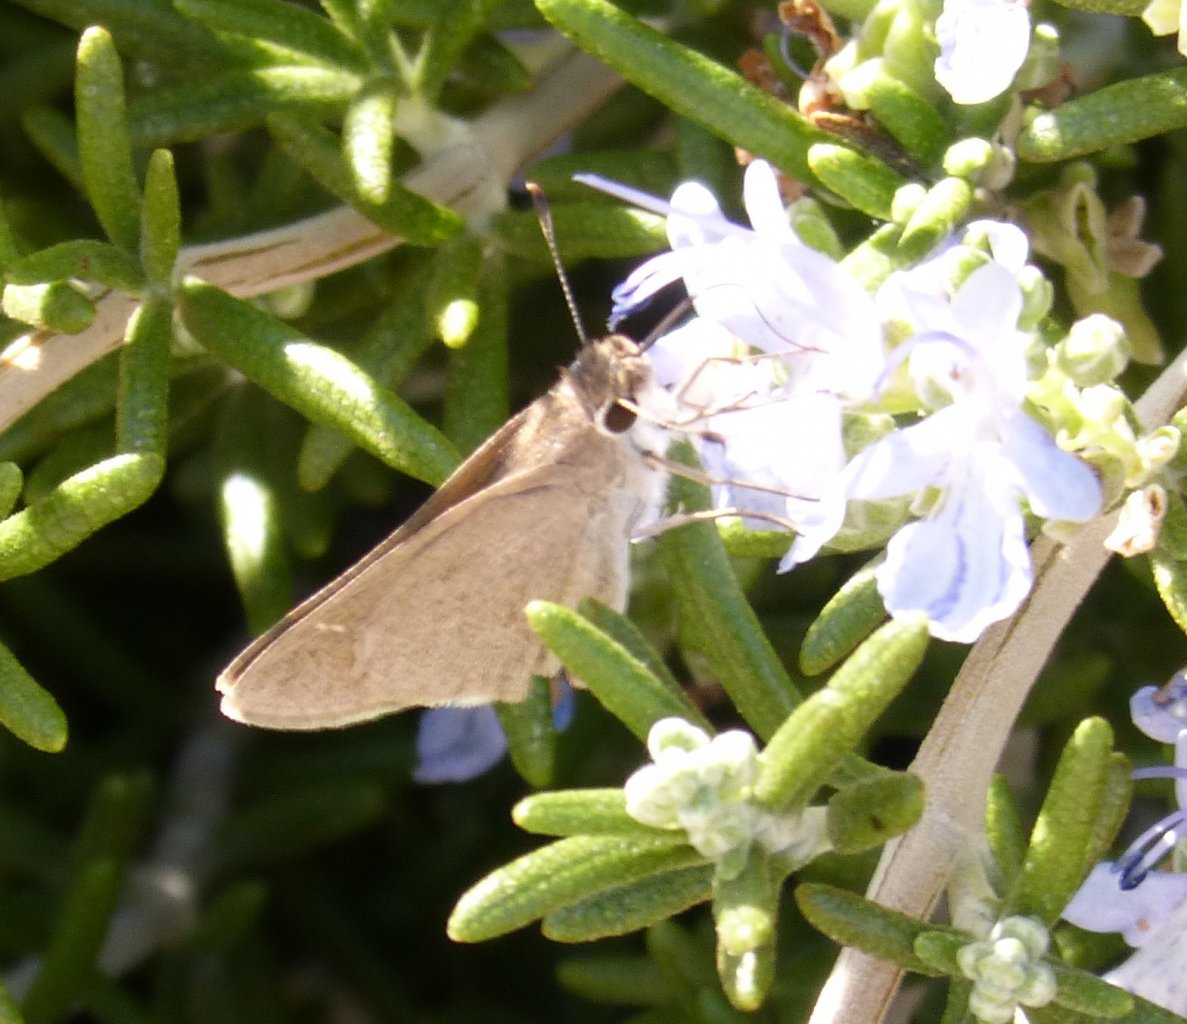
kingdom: Animalia
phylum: Arthropoda
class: Insecta
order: Lepidoptera
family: Hesperiidae
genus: Lerodea
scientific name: Lerodea eufala
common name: Eufala Skipper
